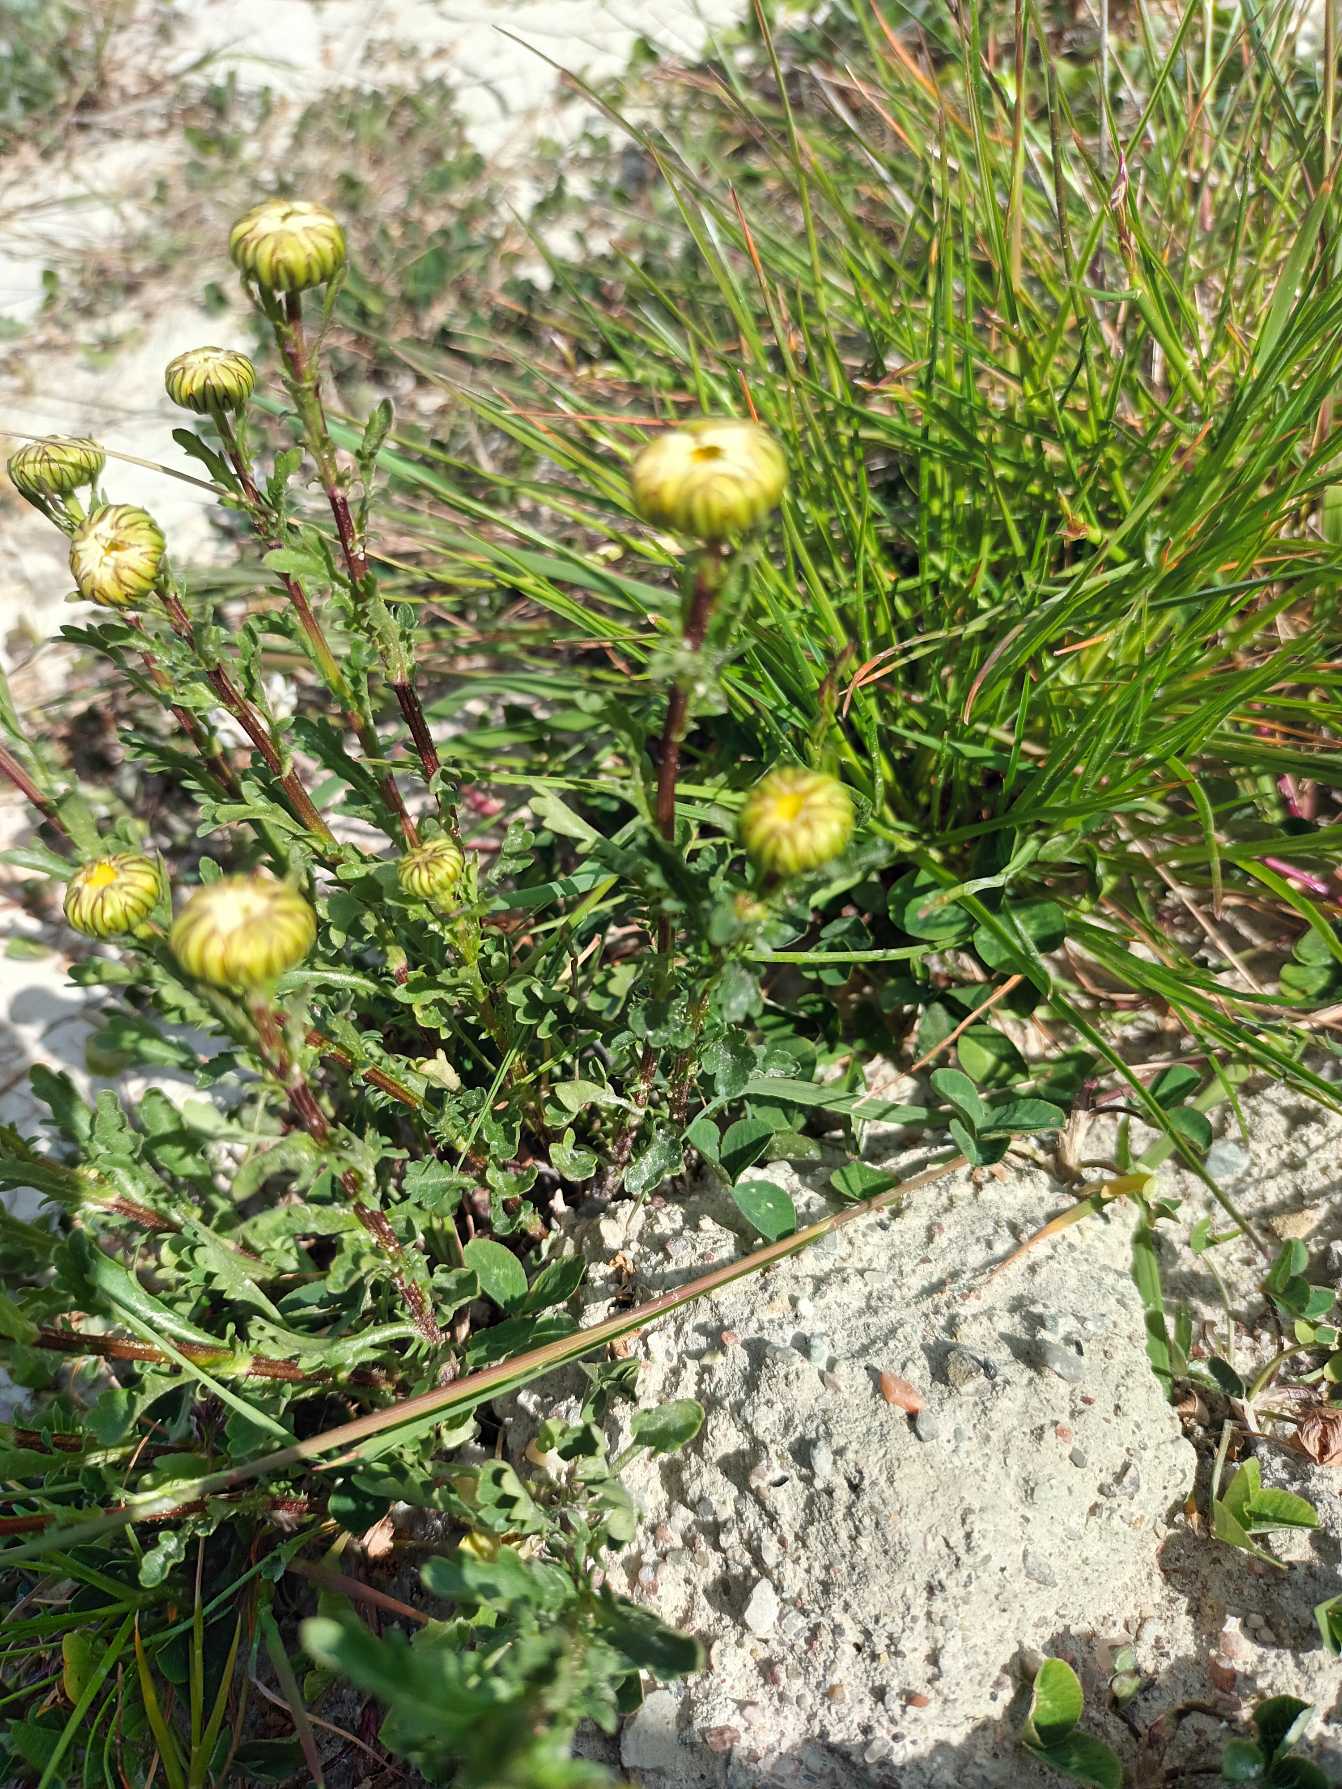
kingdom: Plantae
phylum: Tracheophyta
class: Magnoliopsida
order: Asterales
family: Asteraceae
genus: Leucanthemum
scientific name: Leucanthemum vulgare
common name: Hvid okseøje
